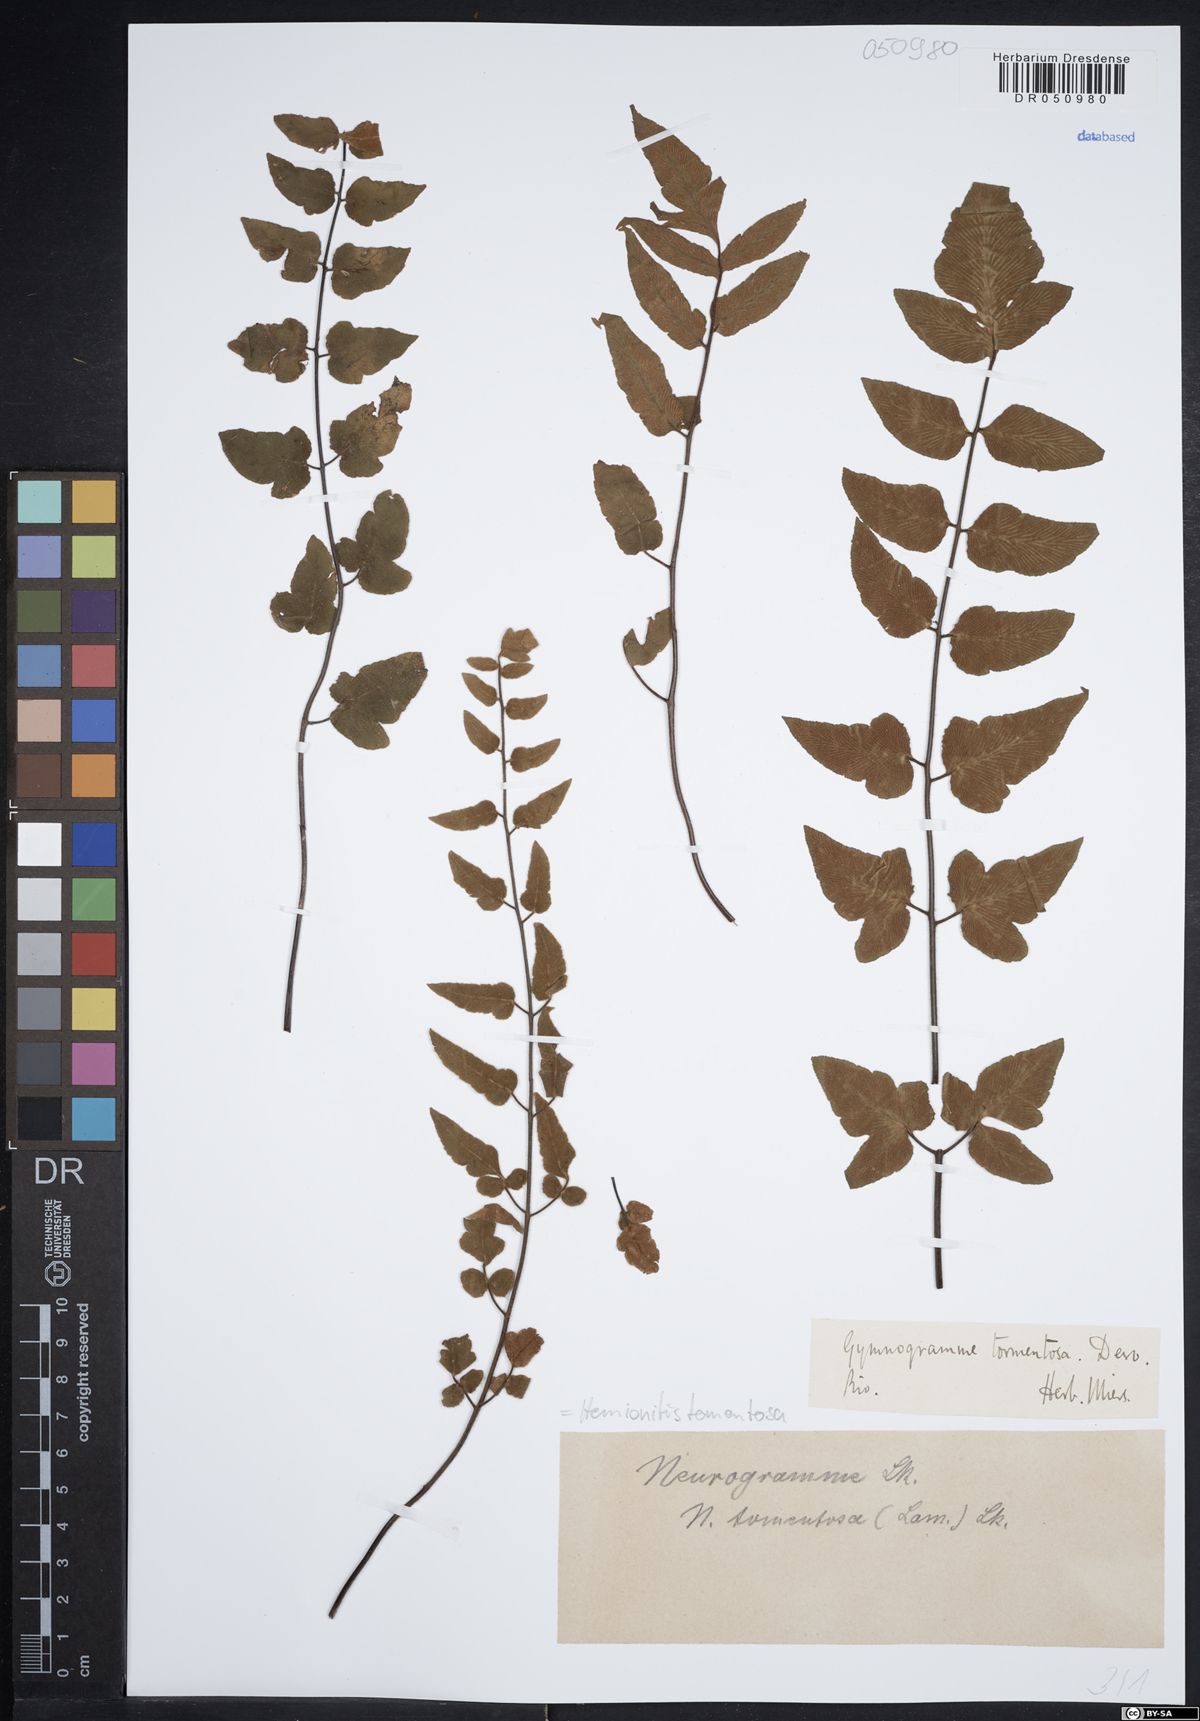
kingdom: Plantae
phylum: Tracheophyta
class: Polypodiopsida
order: Polypodiales
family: Pteridaceae
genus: Hemionitis
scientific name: Hemionitis tomentosa
